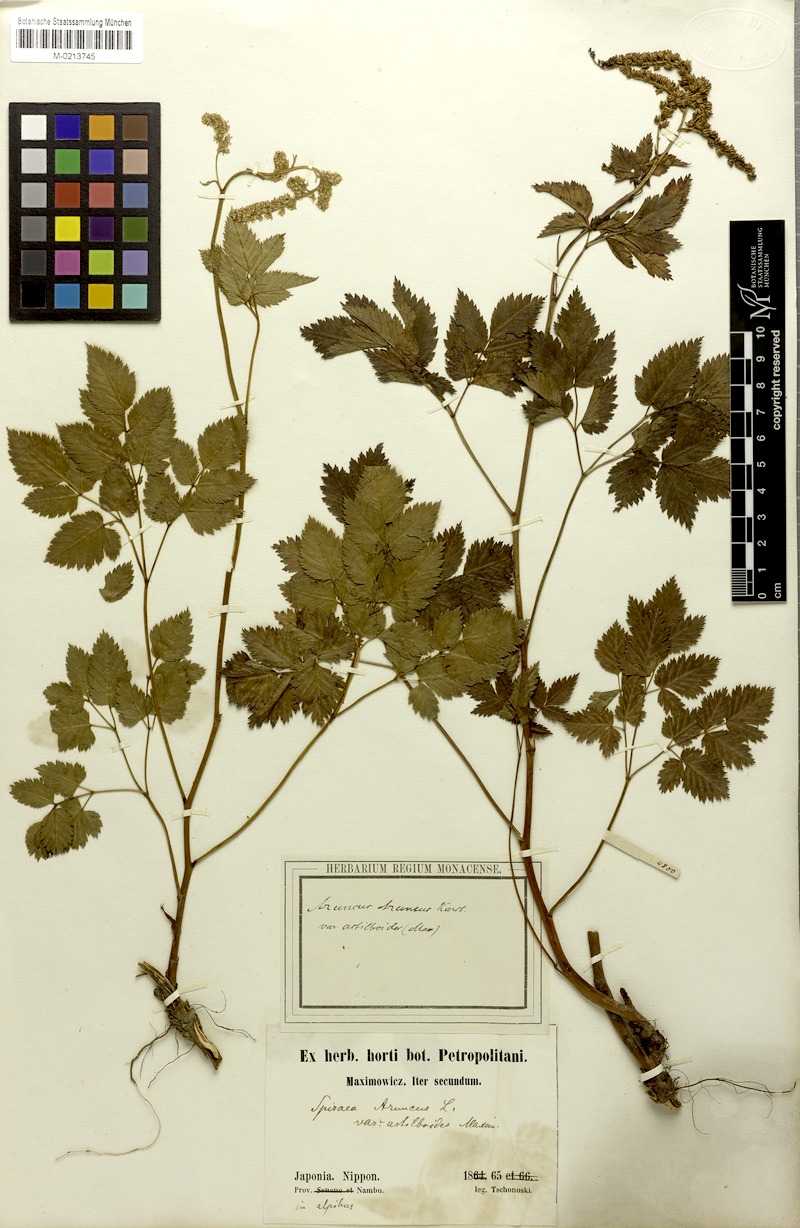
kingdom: Plantae
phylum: Tracheophyta
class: Magnoliopsida
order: Rosales
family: Rosaceae
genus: Aruncus
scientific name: Aruncus sylvester
